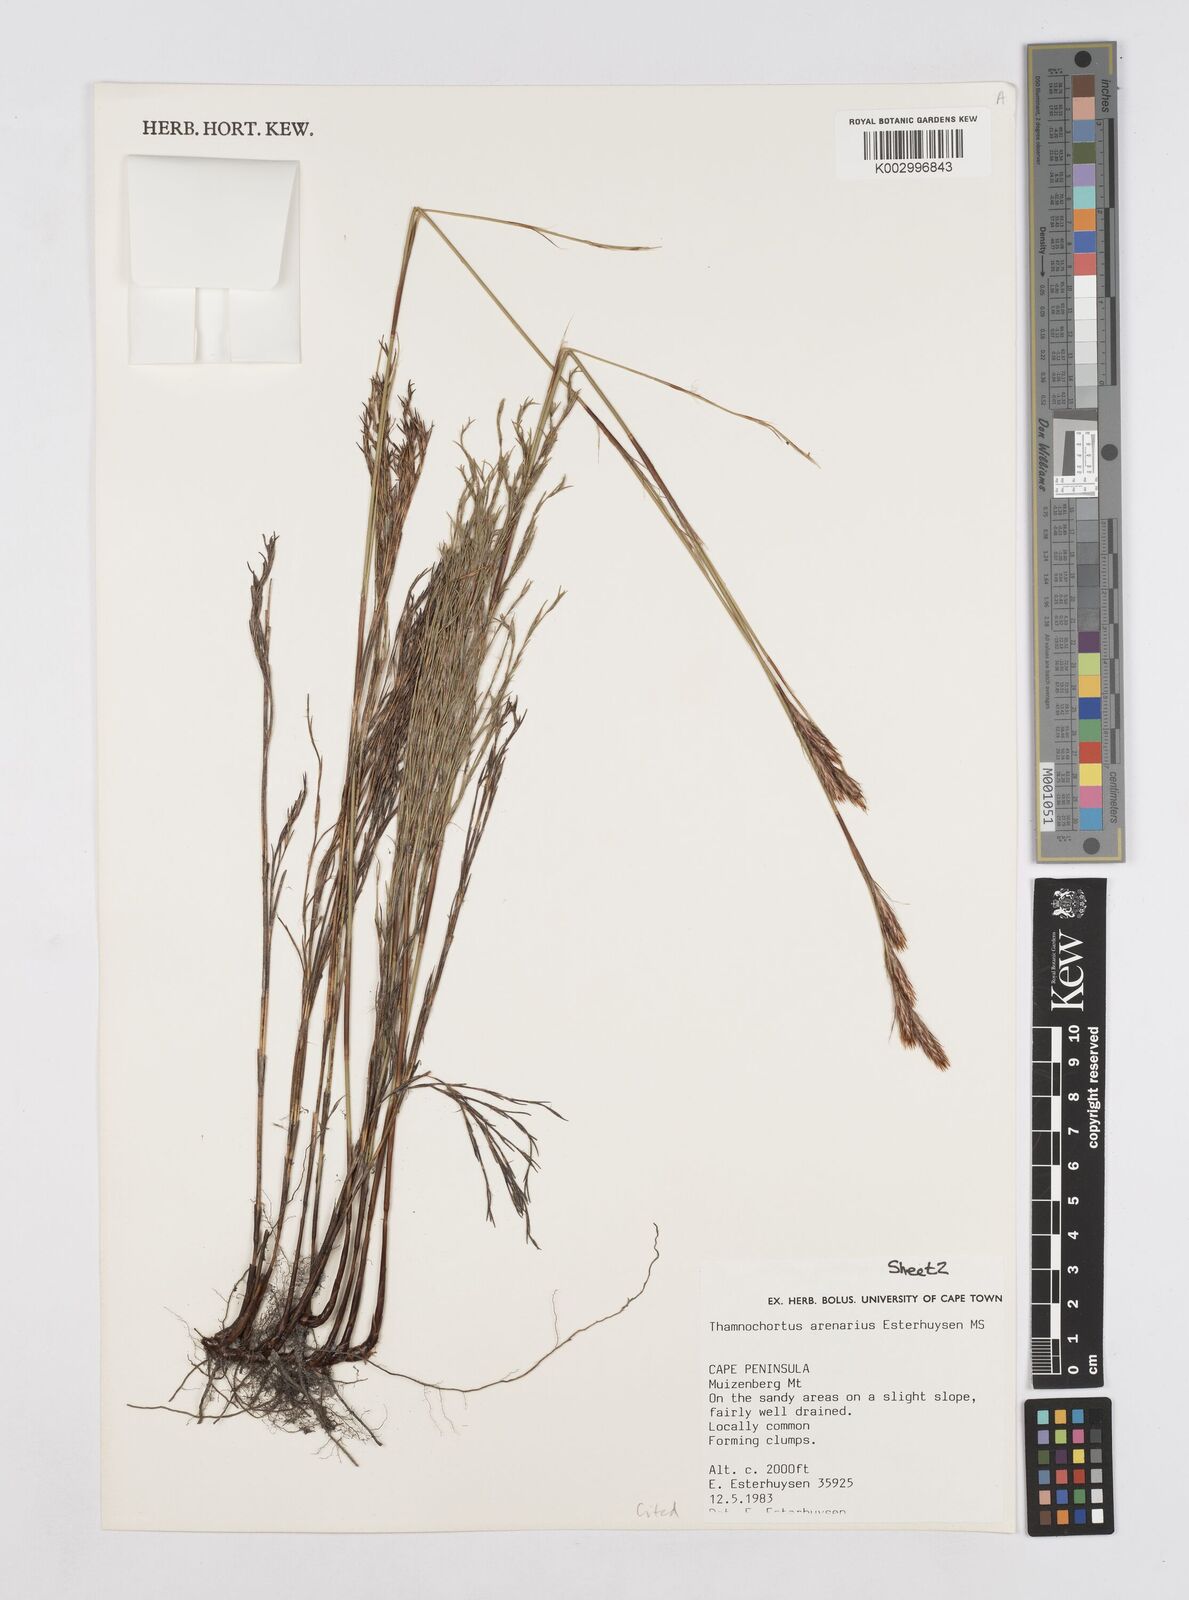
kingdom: Plantae
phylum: Tracheophyta
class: Liliopsida
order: Poales
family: Restionaceae
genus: Thamnochortus
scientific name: Thamnochortus arenarius
